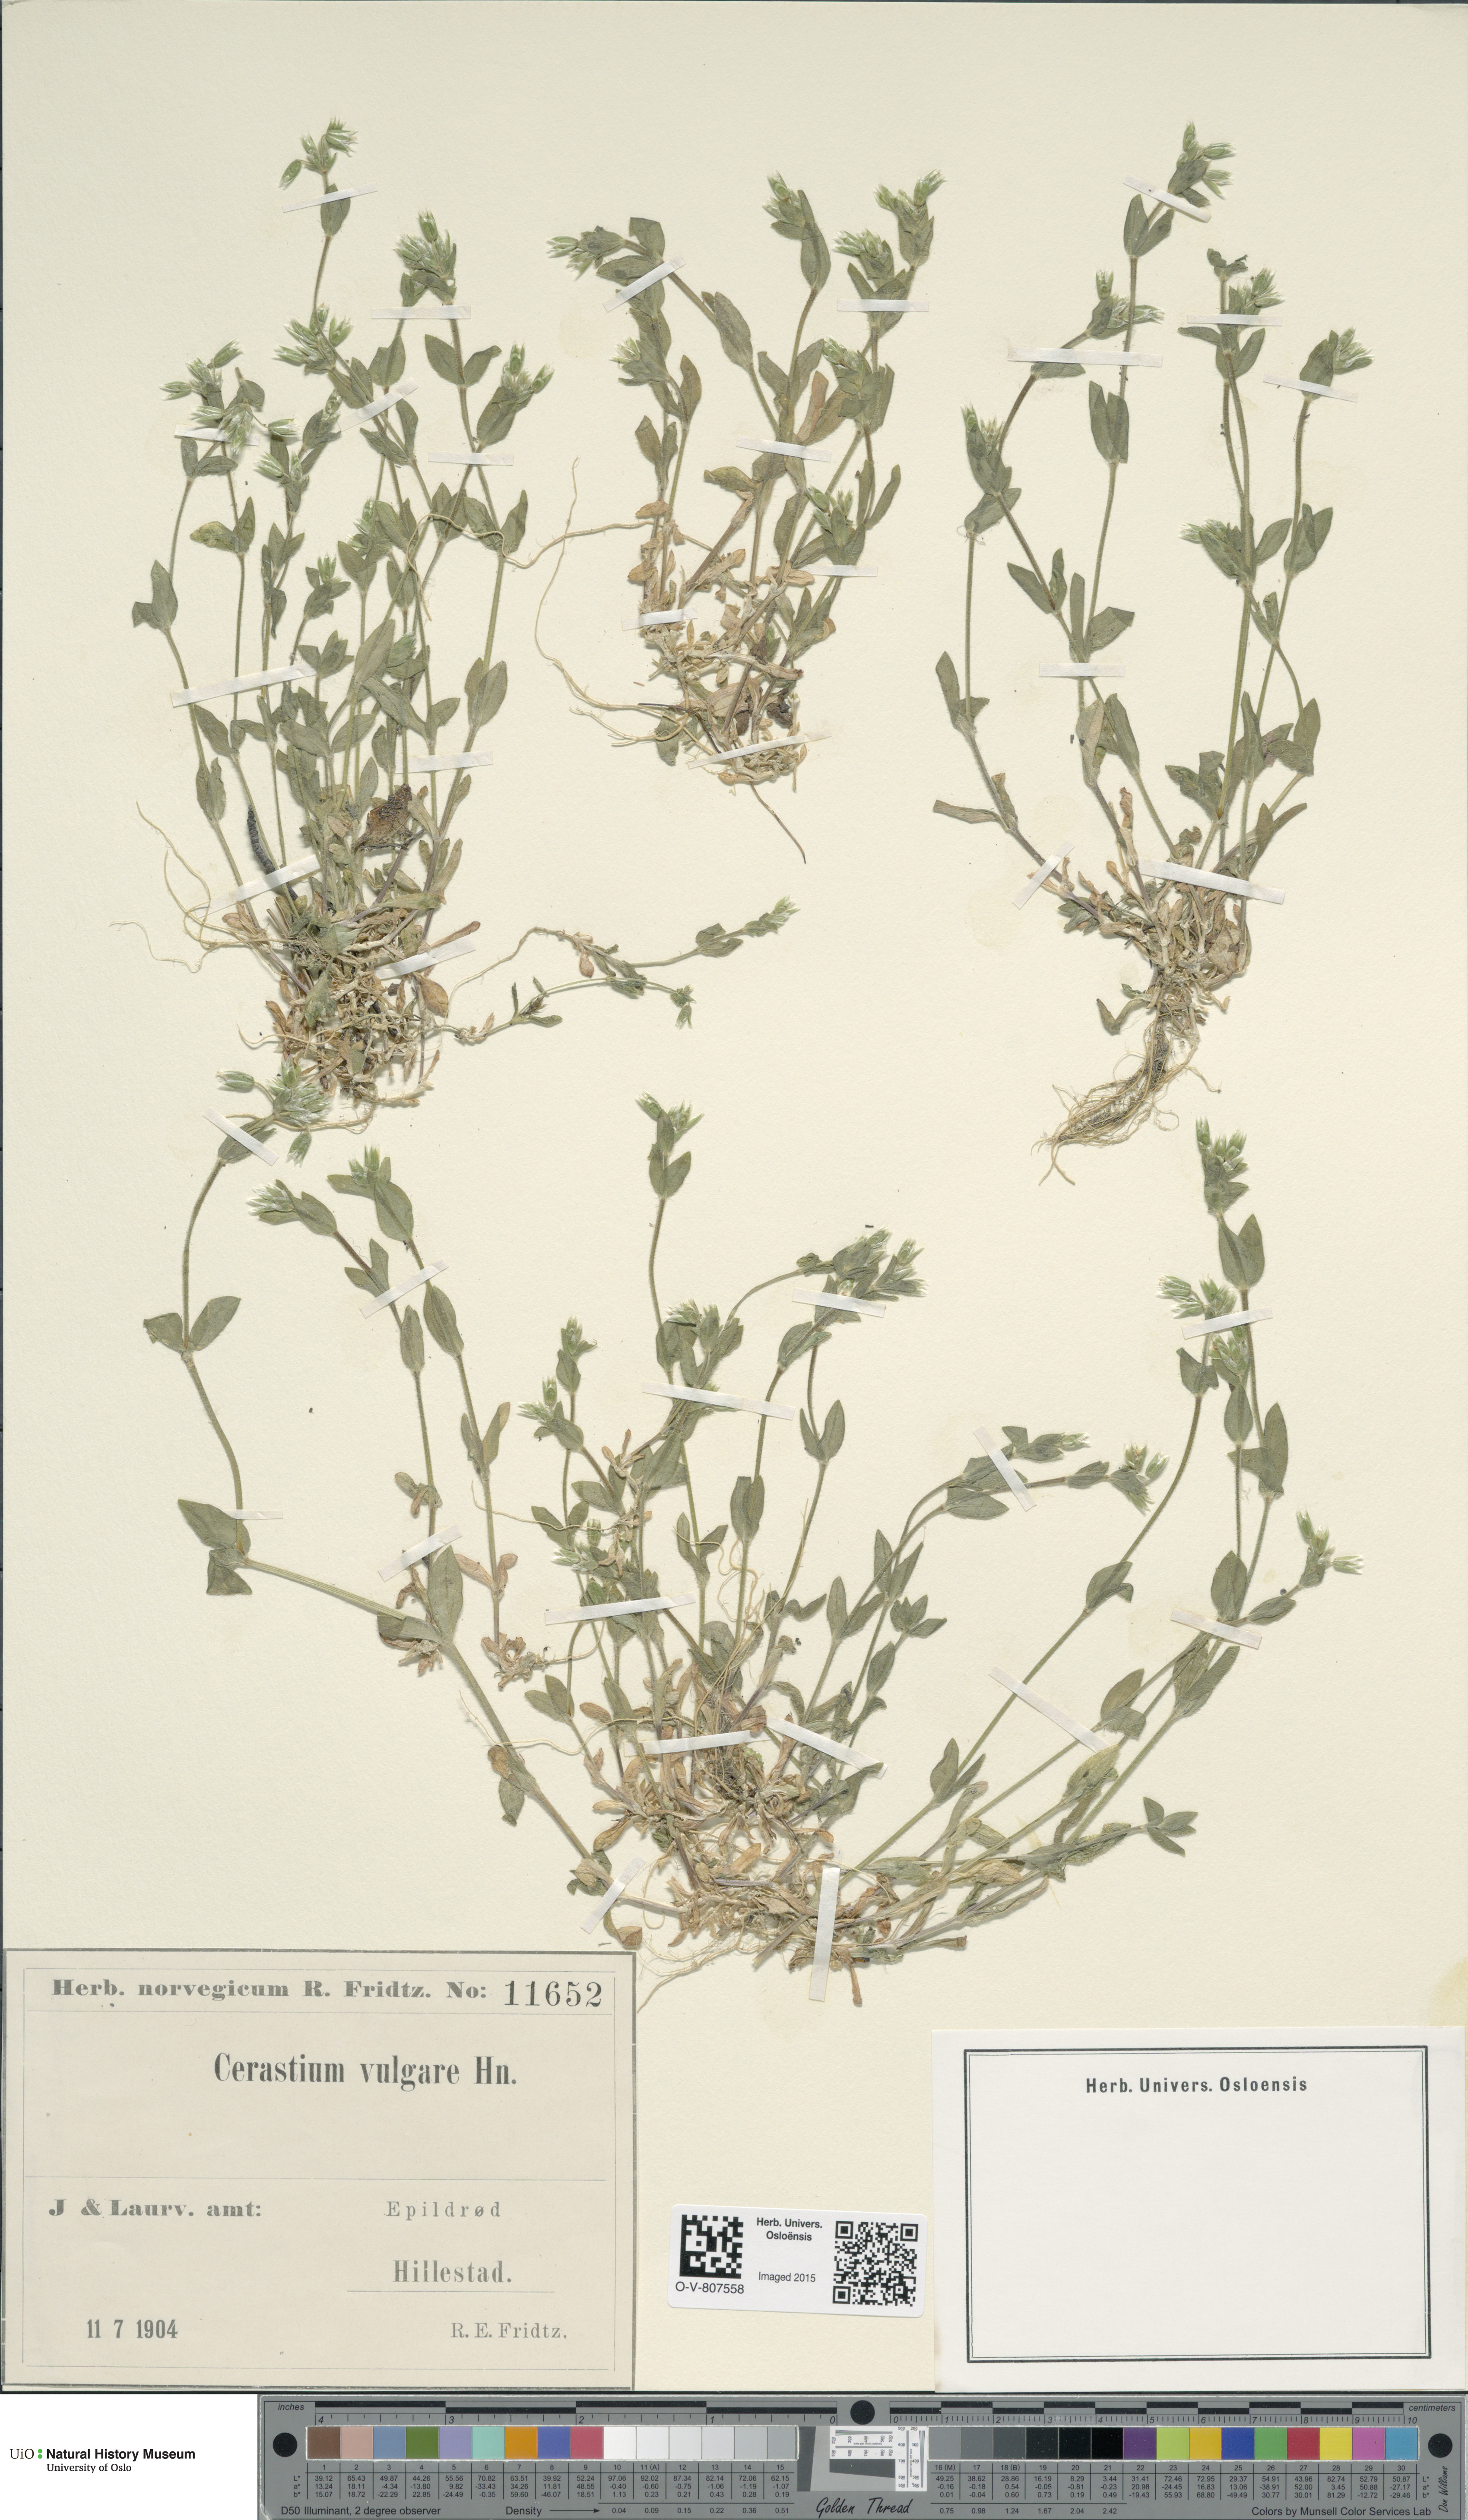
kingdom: Plantae
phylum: Tracheophyta
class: Magnoliopsida
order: Caryophyllales
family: Caryophyllaceae
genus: Cerastium
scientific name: Cerastium holosteoides
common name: Big chickweed
